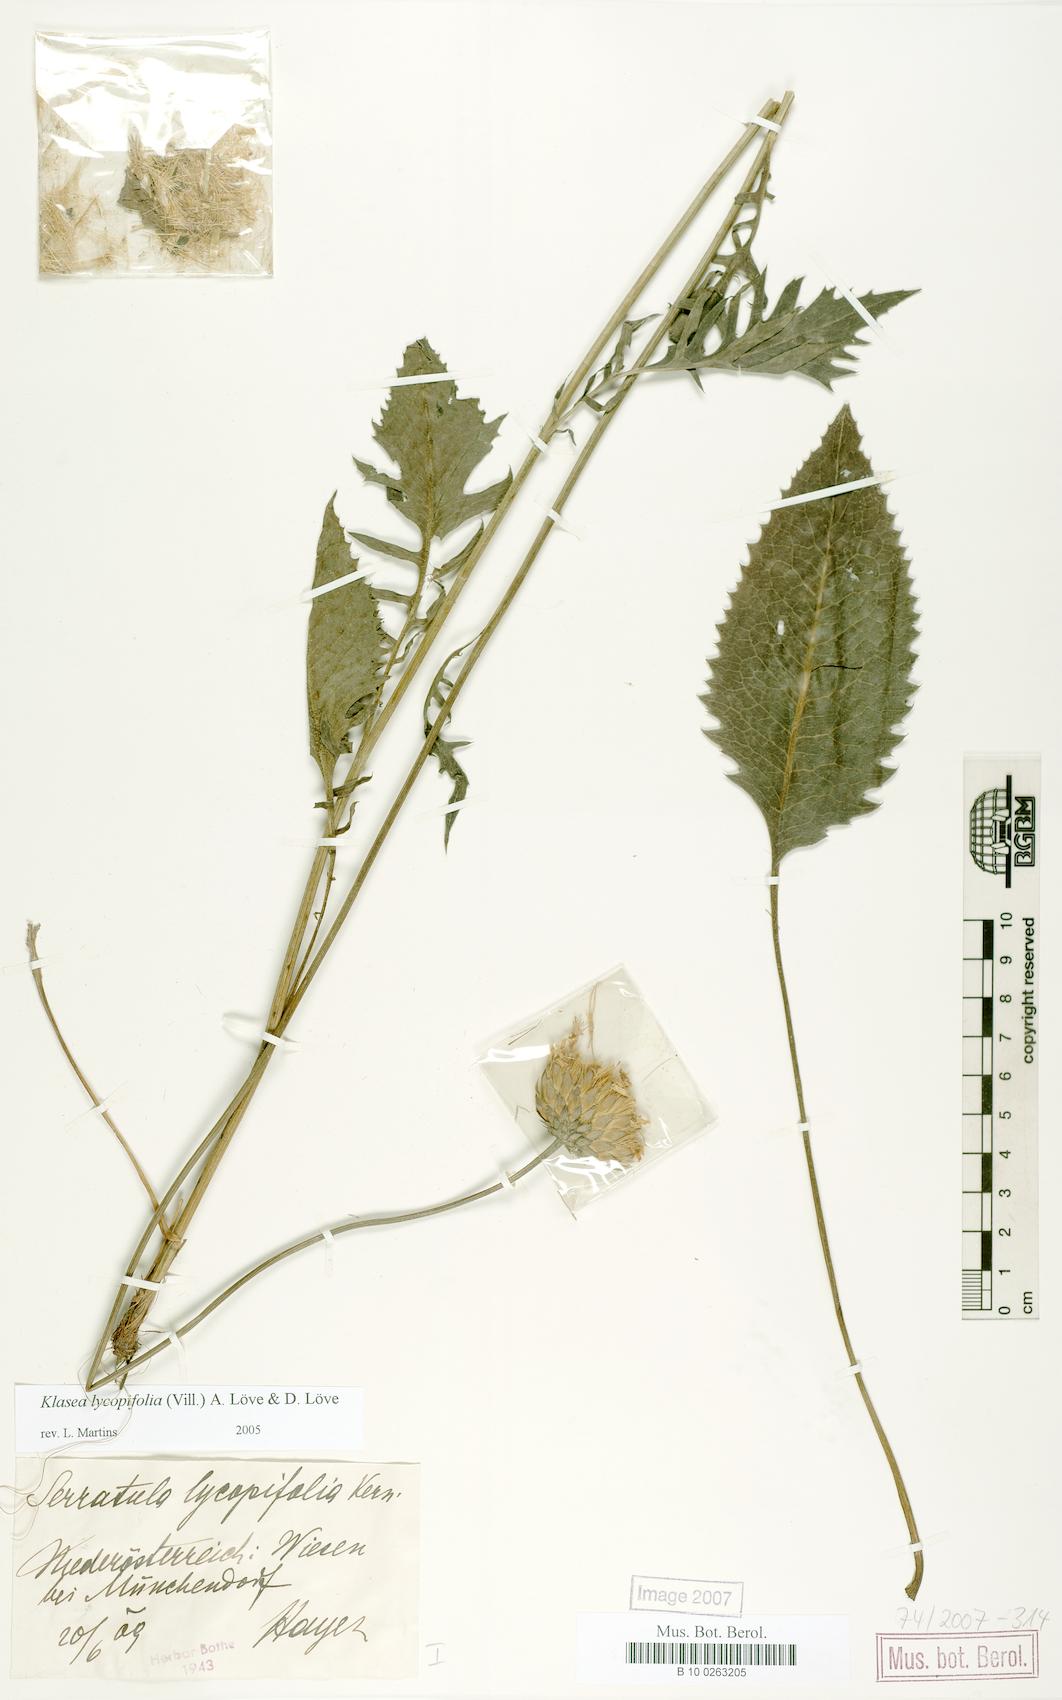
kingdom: Plantae
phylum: Tracheophyta
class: Magnoliopsida
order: Asterales
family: Asteraceae
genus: Klasea
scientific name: Klasea lycopifolia
